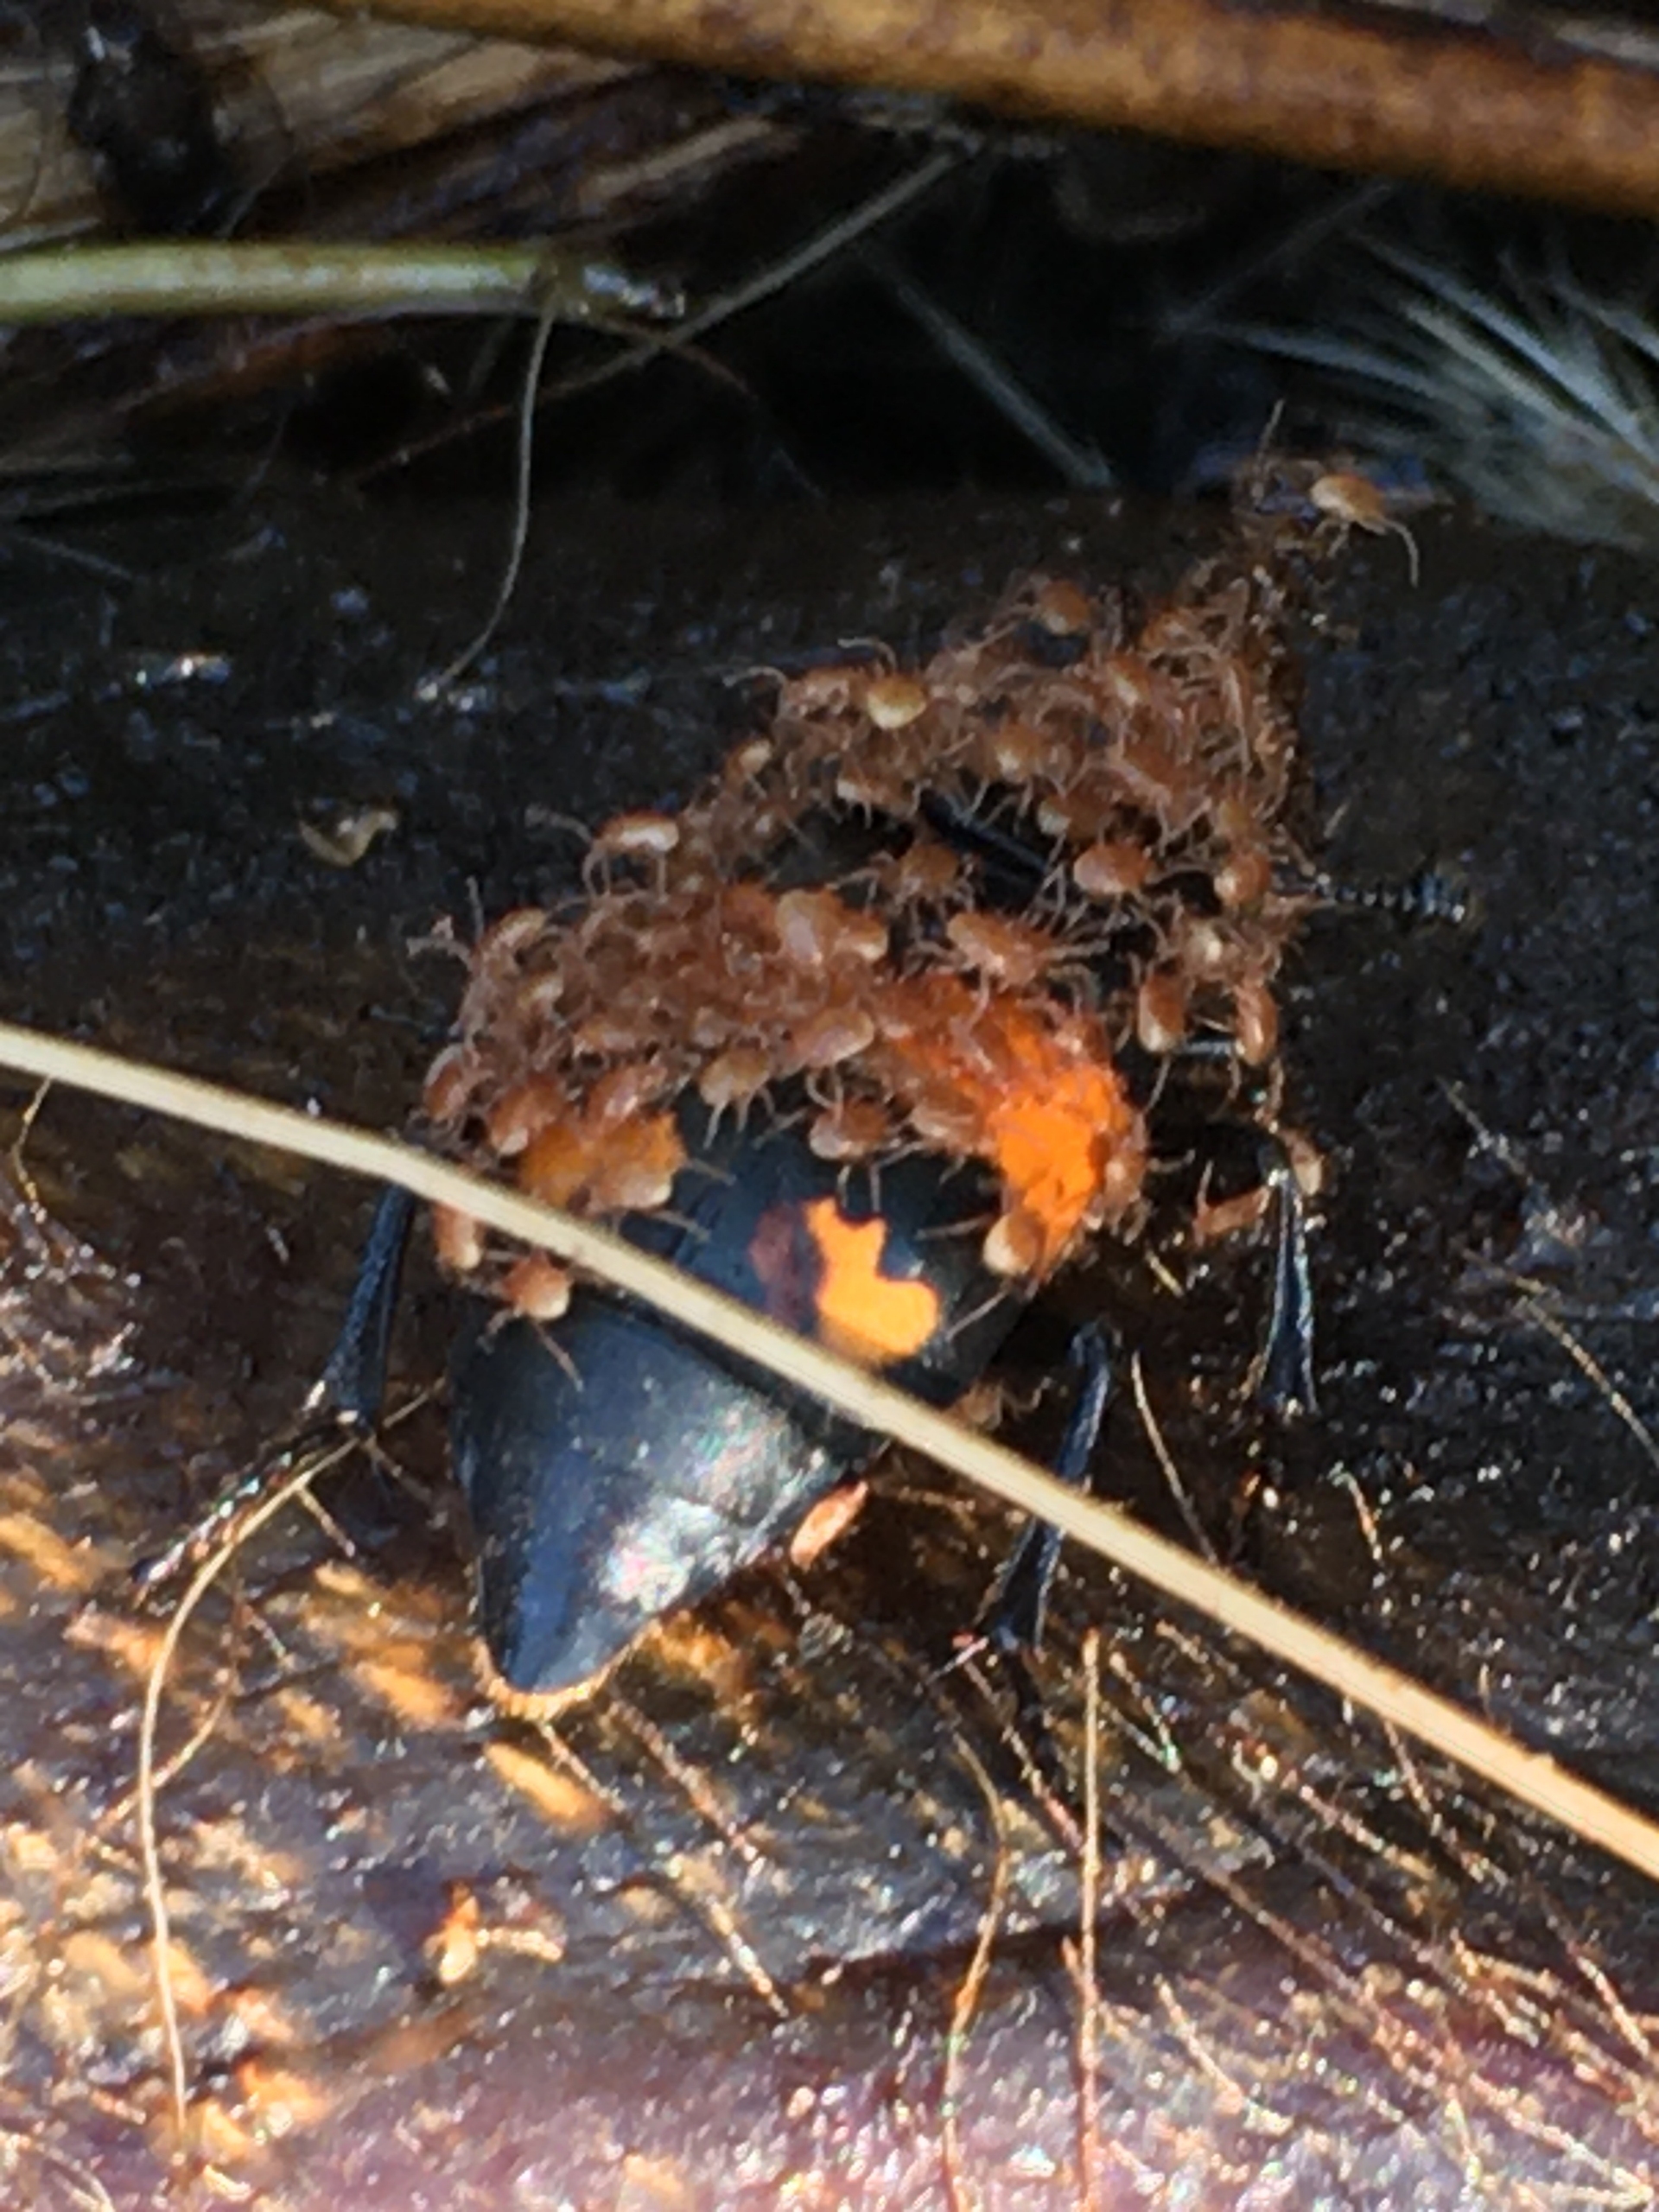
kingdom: Animalia
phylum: Arthropoda
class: Insecta
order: Coleoptera
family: Staphylinidae
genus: Nicrophorus
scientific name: Nicrophorus vespilloides
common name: Sortkøllet ådselgraver
